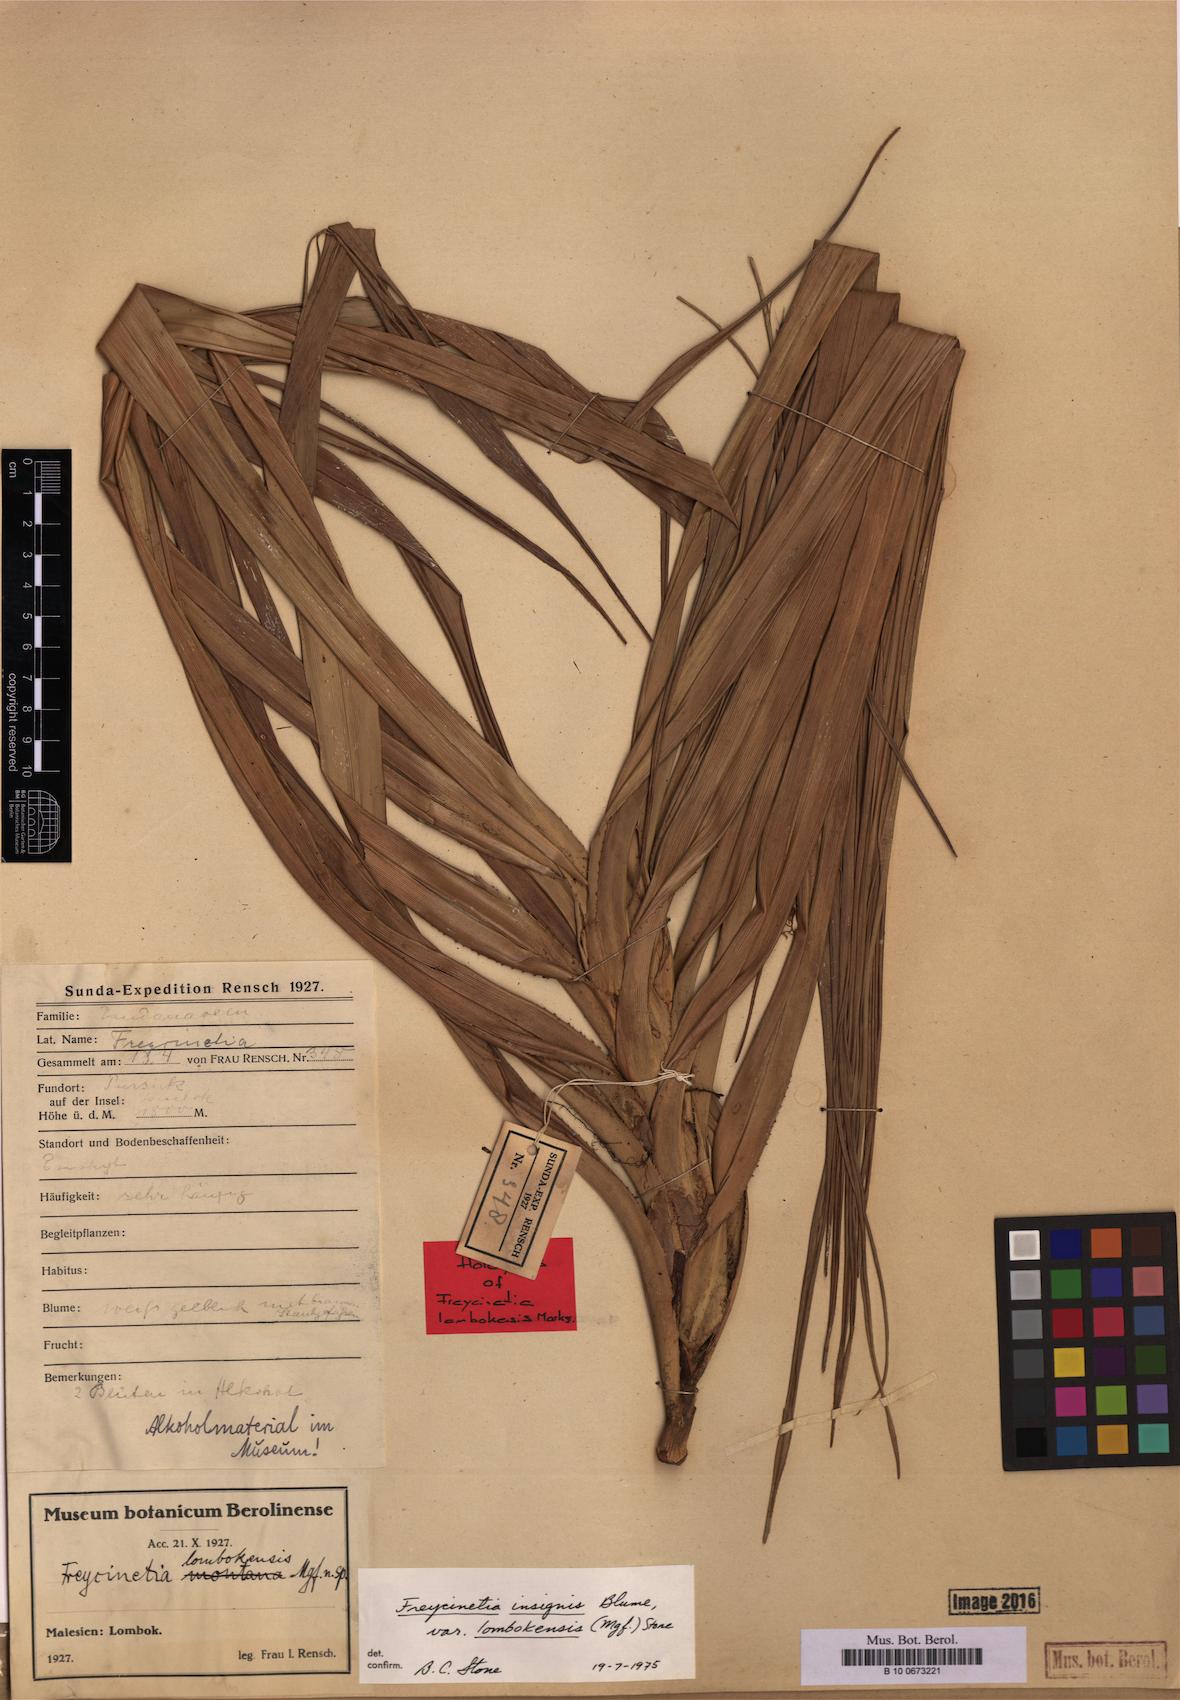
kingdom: Plantae
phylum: Tracheophyta
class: Liliopsida
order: Pandanales
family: Pandanaceae
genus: Freycinetia
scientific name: Freycinetia insignis
